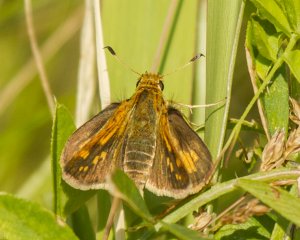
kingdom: Animalia
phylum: Arthropoda
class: Insecta
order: Lepidoptera
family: Hesperiidae
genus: Polites
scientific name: Polites themistocles
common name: Tawny-edged Skipper
